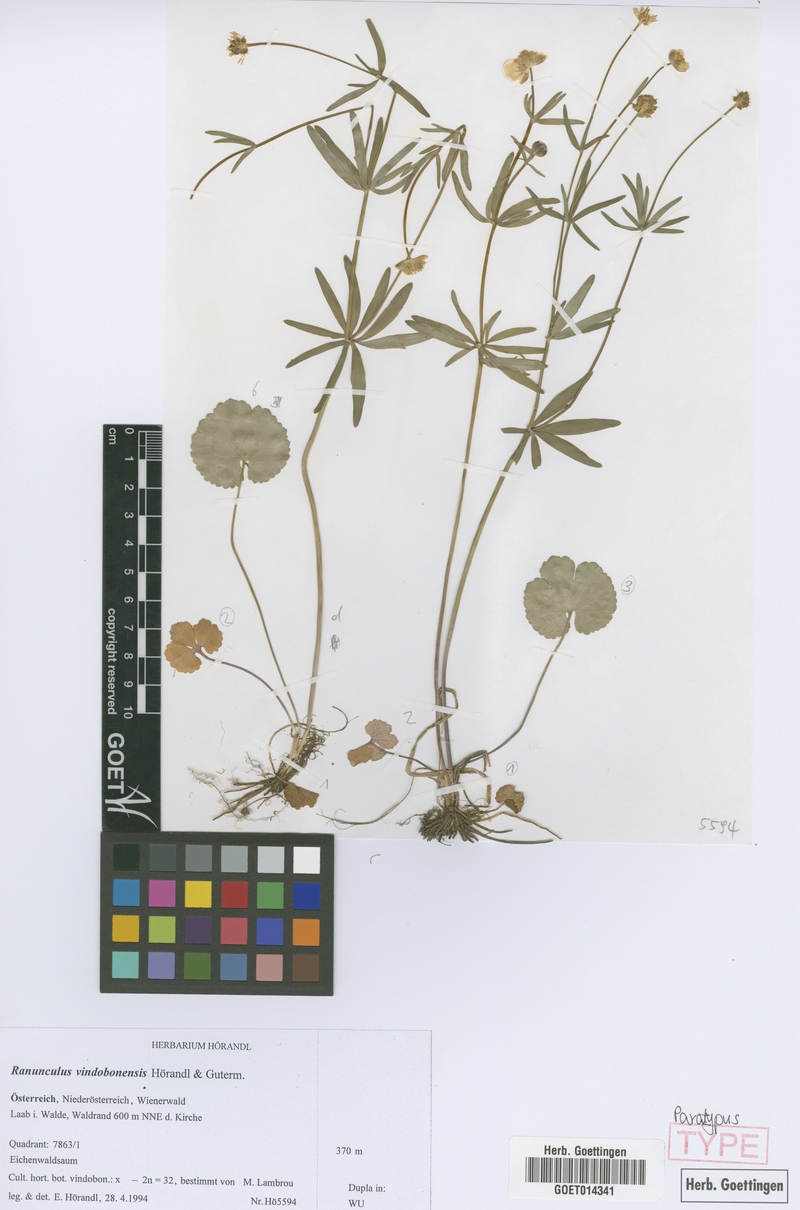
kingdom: Plantae
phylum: Tracheophyta
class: Magnoliopsida
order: Ranunculales
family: Ranunculaceae
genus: Ranunculus
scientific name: Ranunculus vindobonensis
